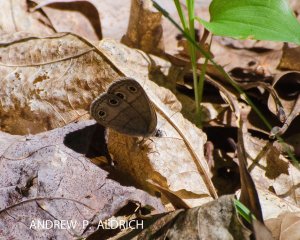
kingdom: Animalia
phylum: Arthropoda
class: Insecta
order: Lepidoptera
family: Nymphalidae
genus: Euptychia
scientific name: Euptychia cymela
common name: Little Wood Satyr
